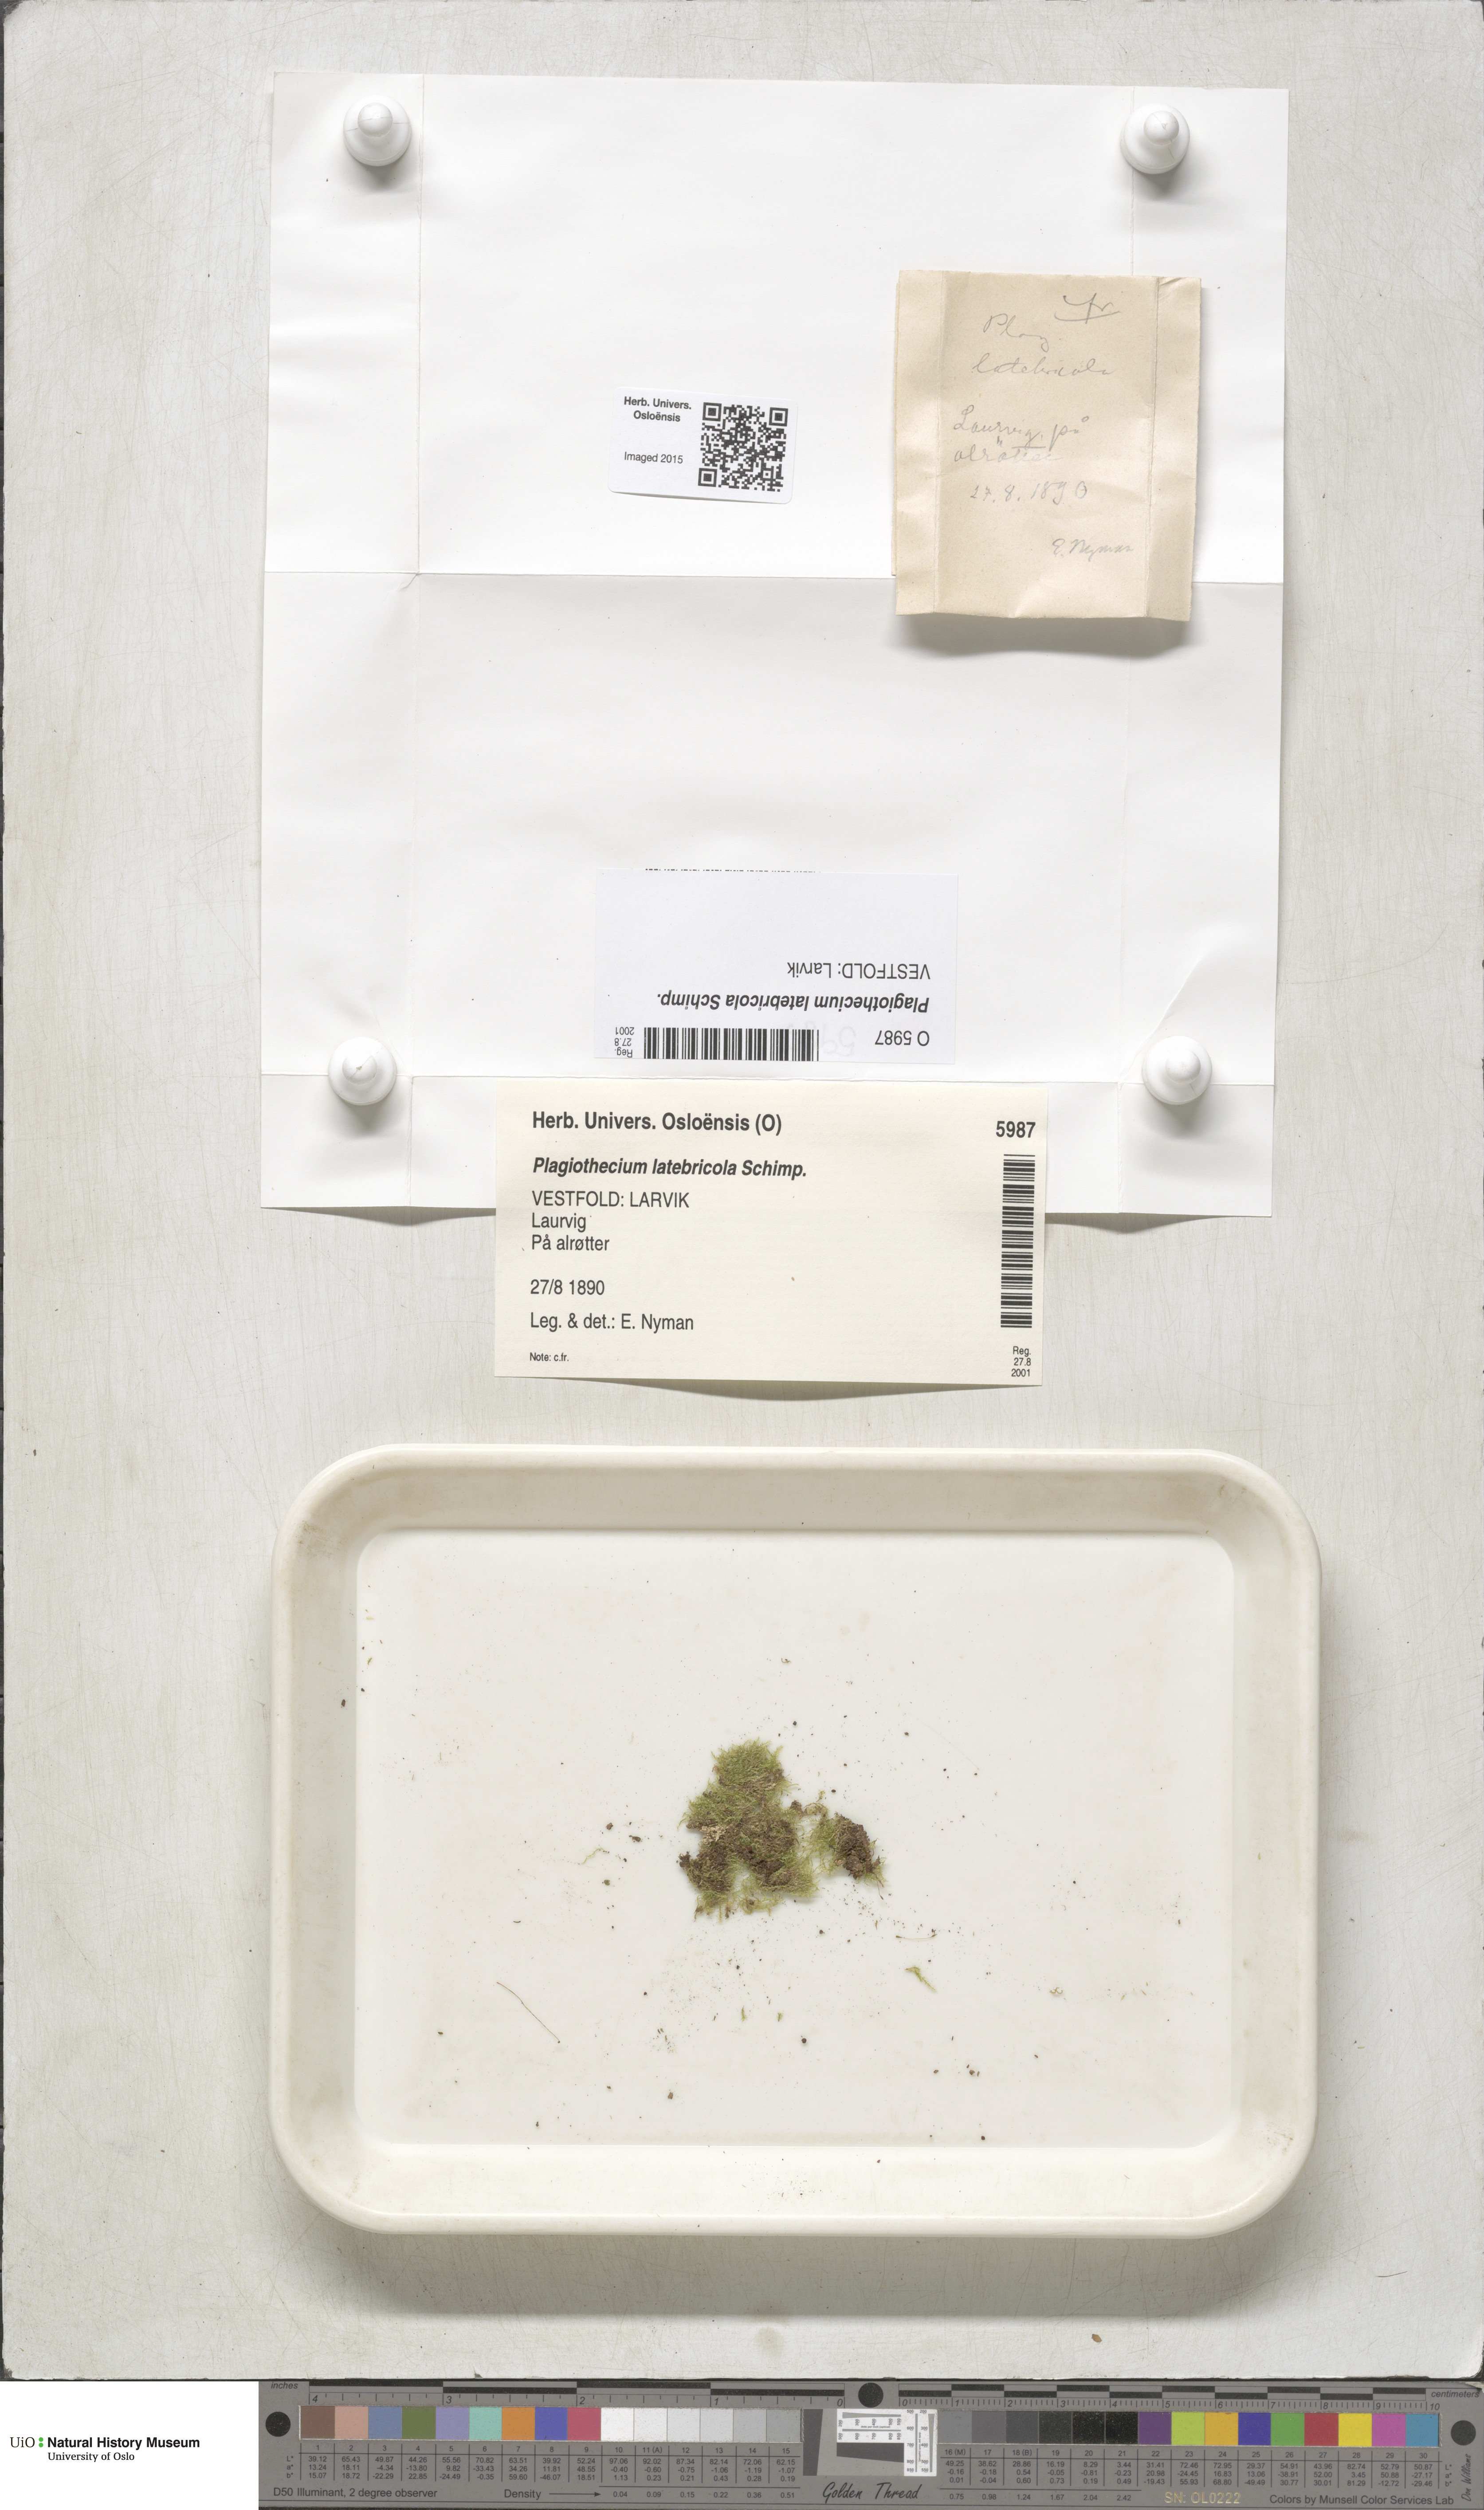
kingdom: Plantae
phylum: Bryophyta
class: Bryopsida
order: Hypnales
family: Plagiotheciaceae
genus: Plagiothecium
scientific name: Plagiothecium latebricola
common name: Alder silk moss
